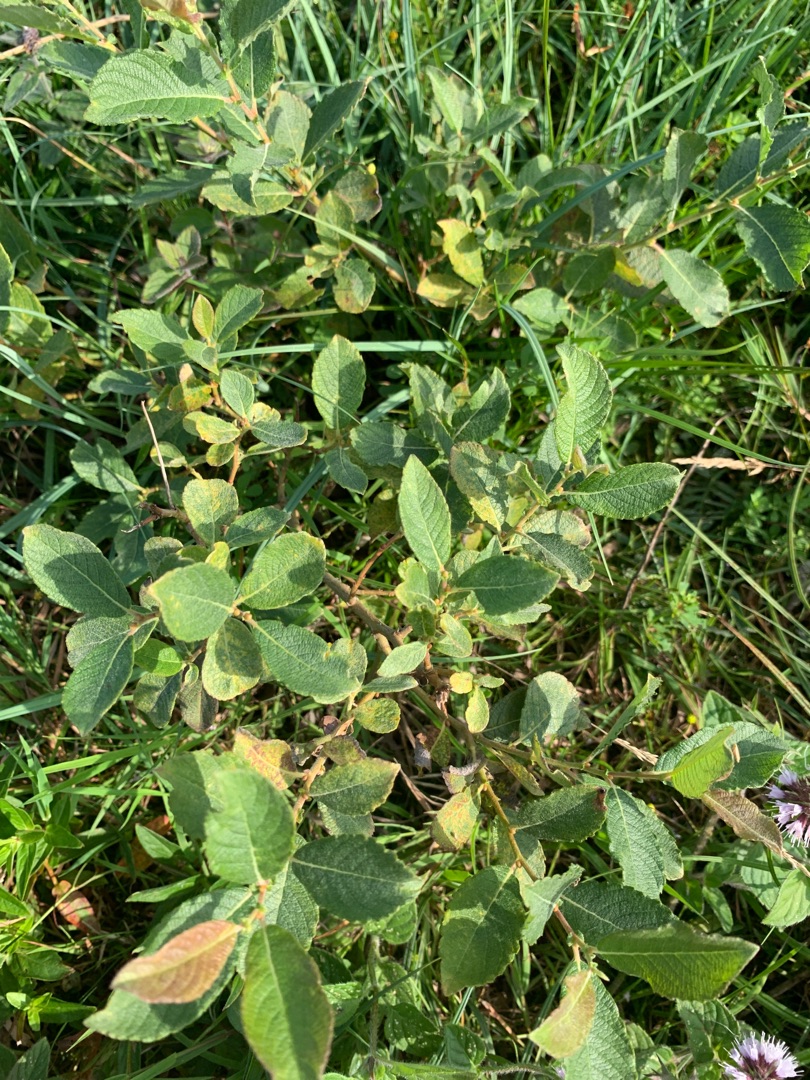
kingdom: Plantae
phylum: Tracheophyta
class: Magnoliopsida
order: Malpighiales
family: Salicaceae
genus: Salix
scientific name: Salix aurita
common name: Øret pil
